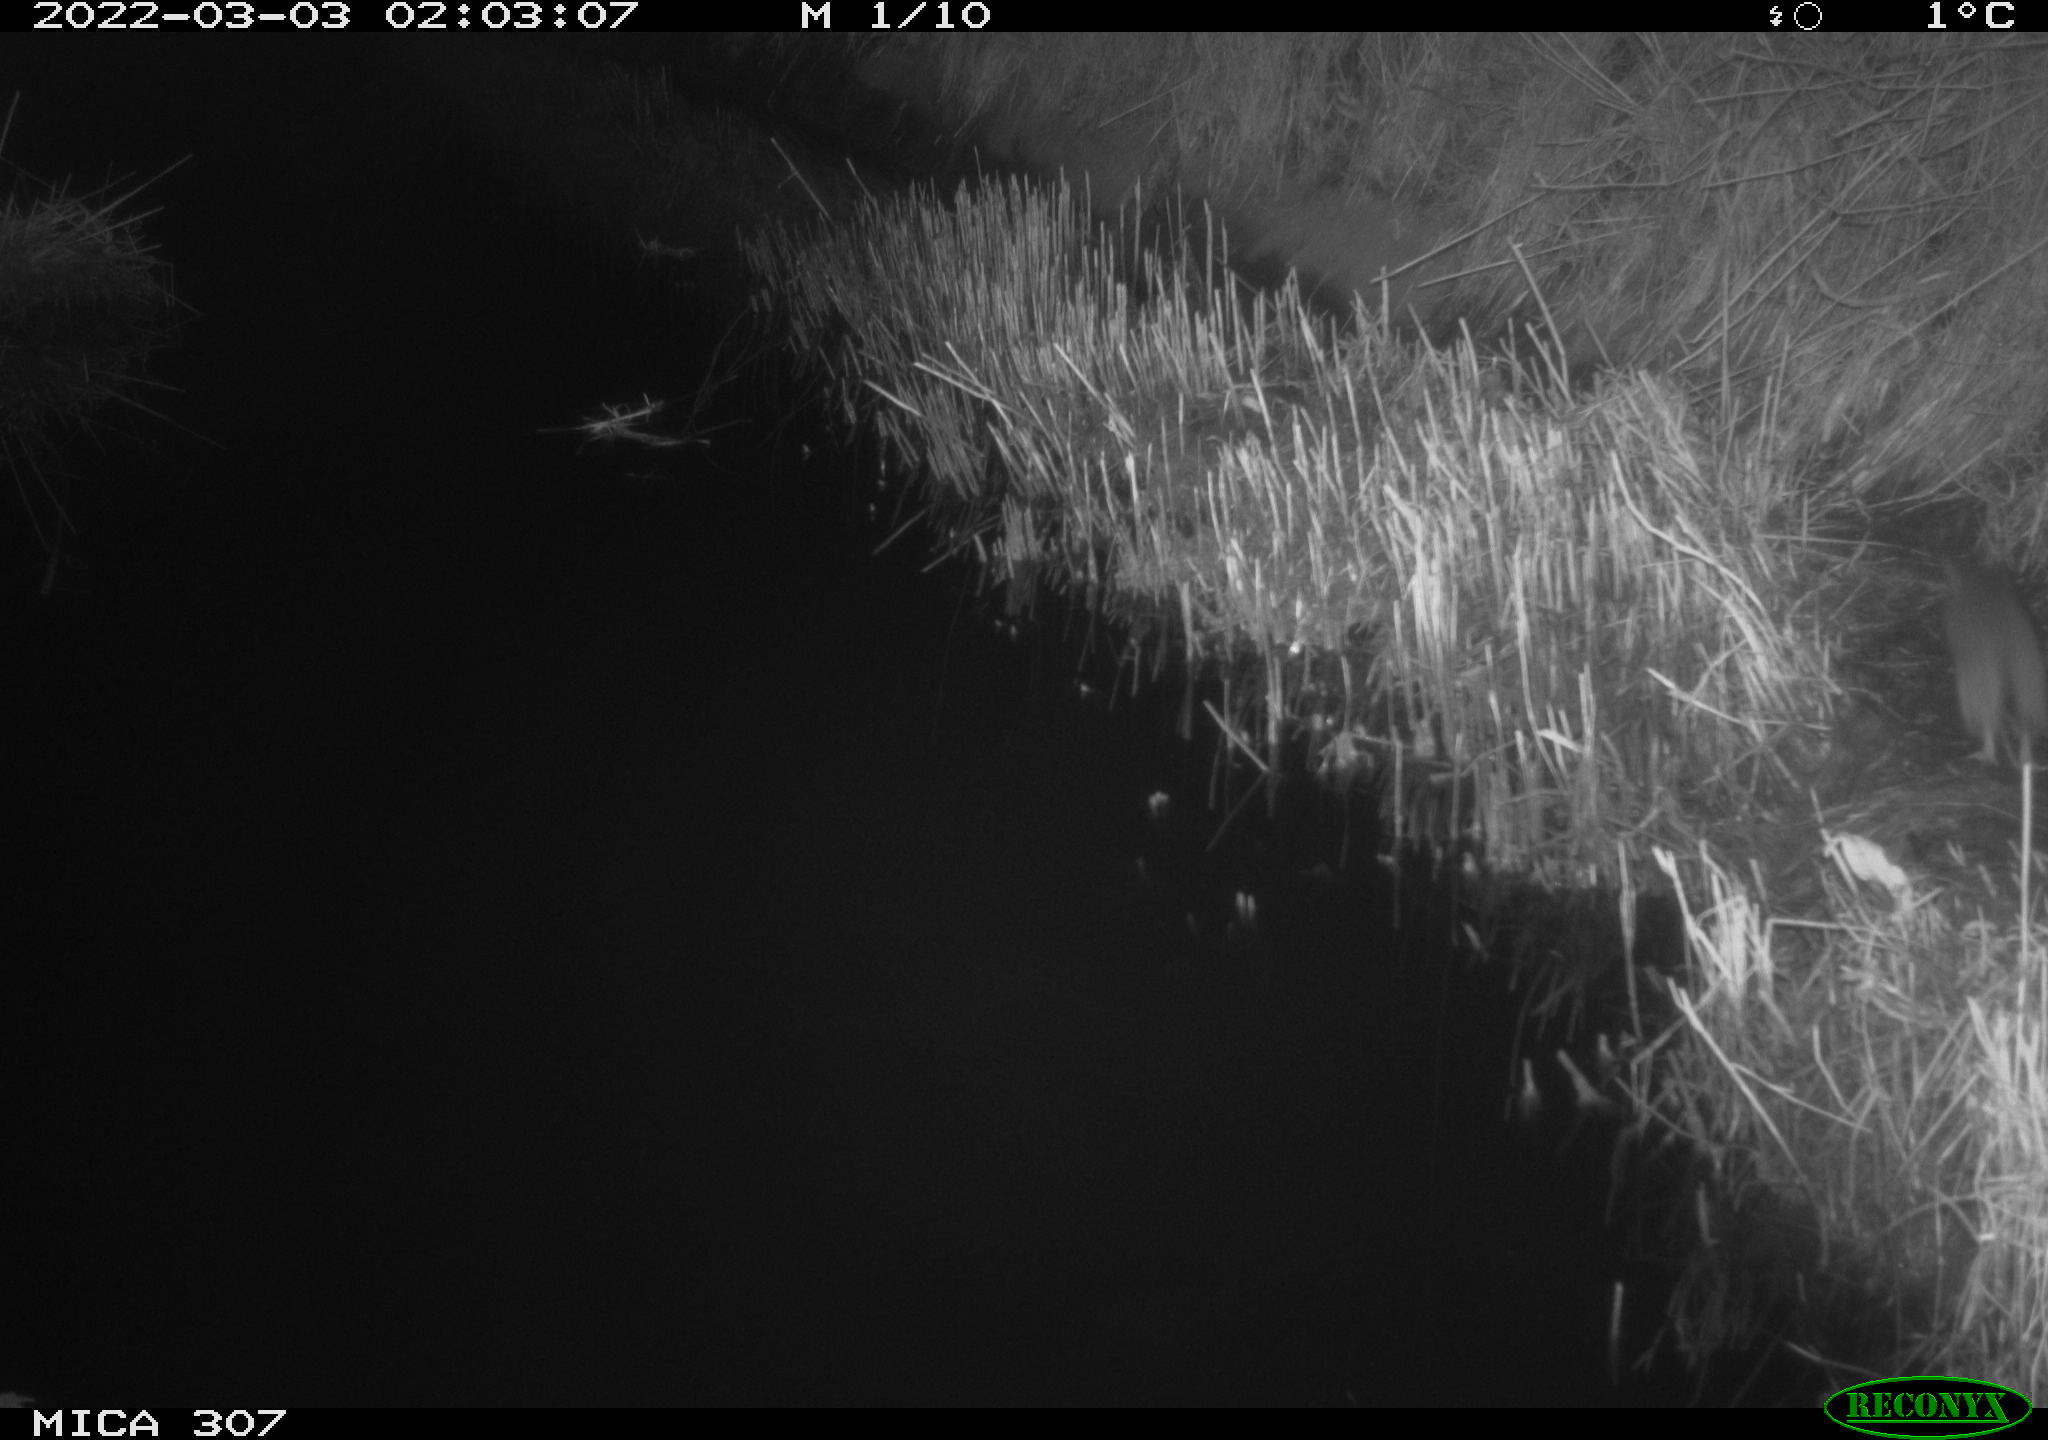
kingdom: Animalia
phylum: Chordata
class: Mammalia
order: Rodentia
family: Muridae
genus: Rattus
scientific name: Rattus norvegicus
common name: Brown rat
